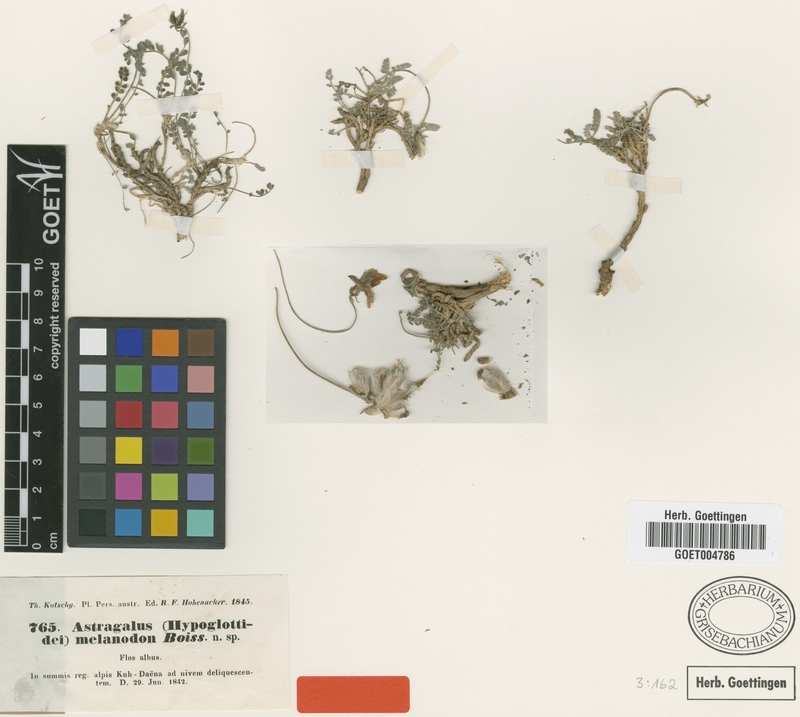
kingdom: Plantae
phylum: Tracheophyta
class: Magnoliopsida
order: Fabales
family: Fabaceae
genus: Astragalus
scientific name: Astragalus melanodon
